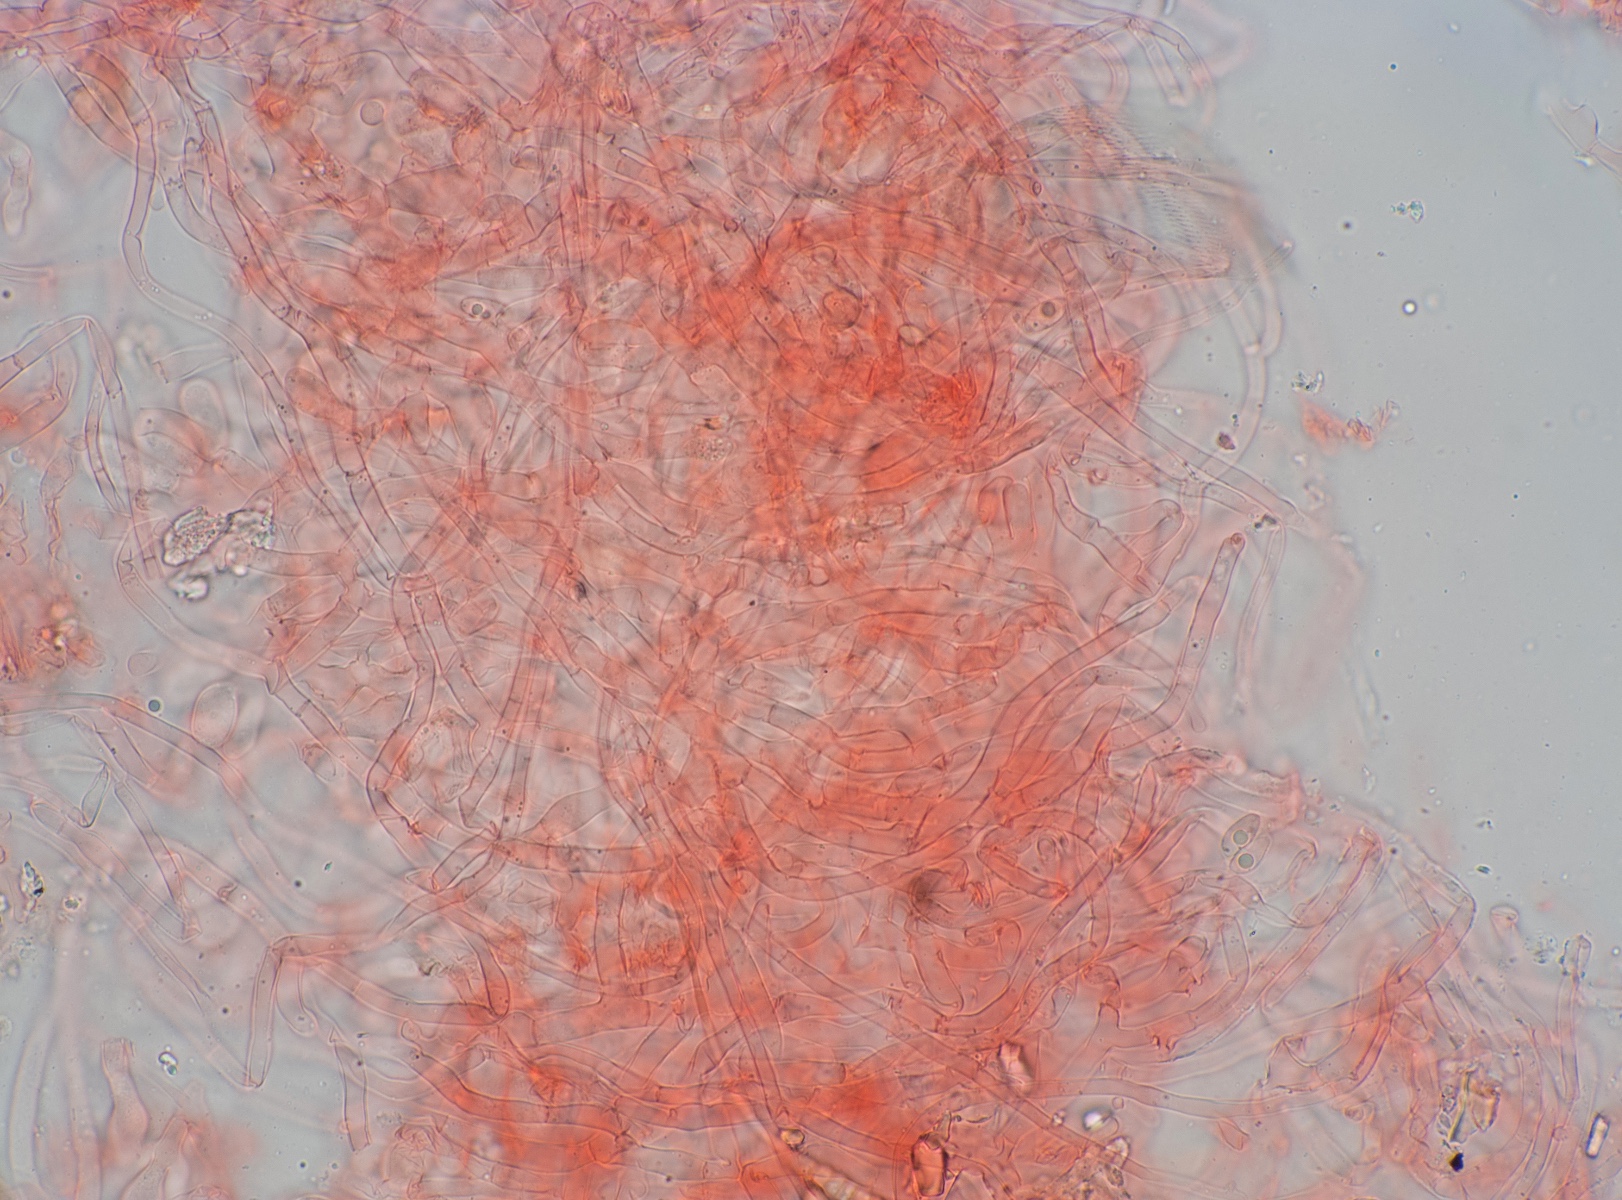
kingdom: Fungi
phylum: Basidiomycota
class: Agaricomycetes
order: Agaricales
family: Crepidotaceae
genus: Pellidiscus
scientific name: Pellidiscus pallidus
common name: skålformet muslingesvamp
